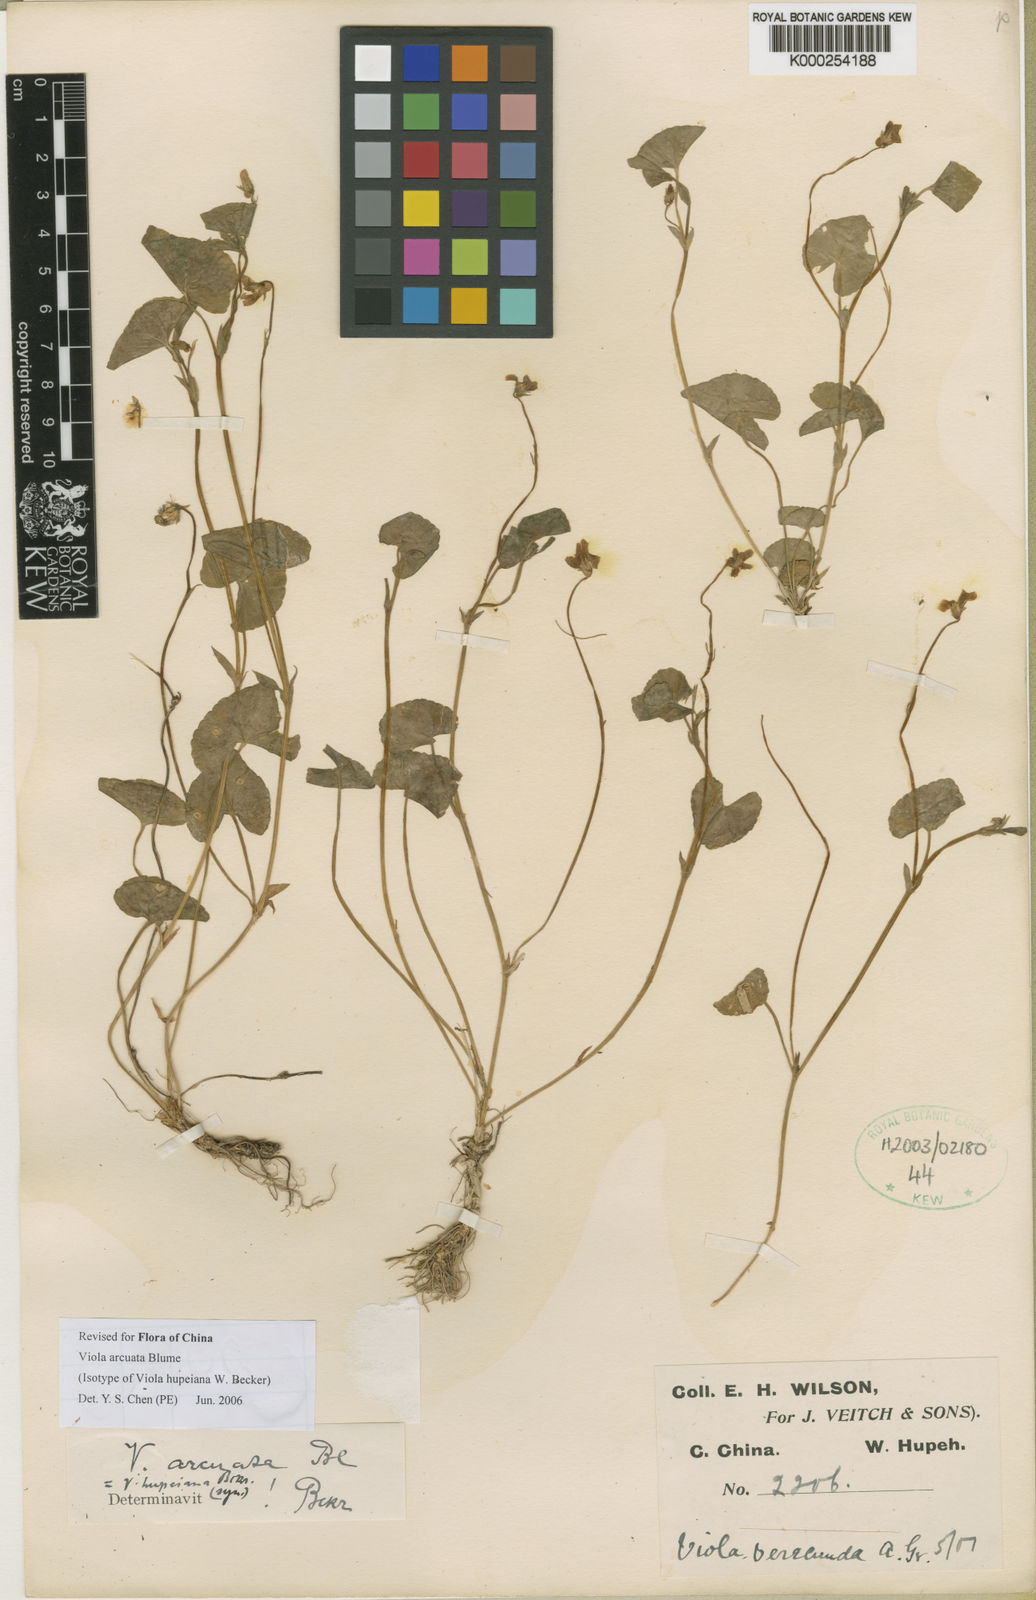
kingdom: Plantae
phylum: Tracheophyta
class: Magnoliopsida
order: Malpighiales
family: Violaceae
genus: Viola
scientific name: Viola hamiltoniana
